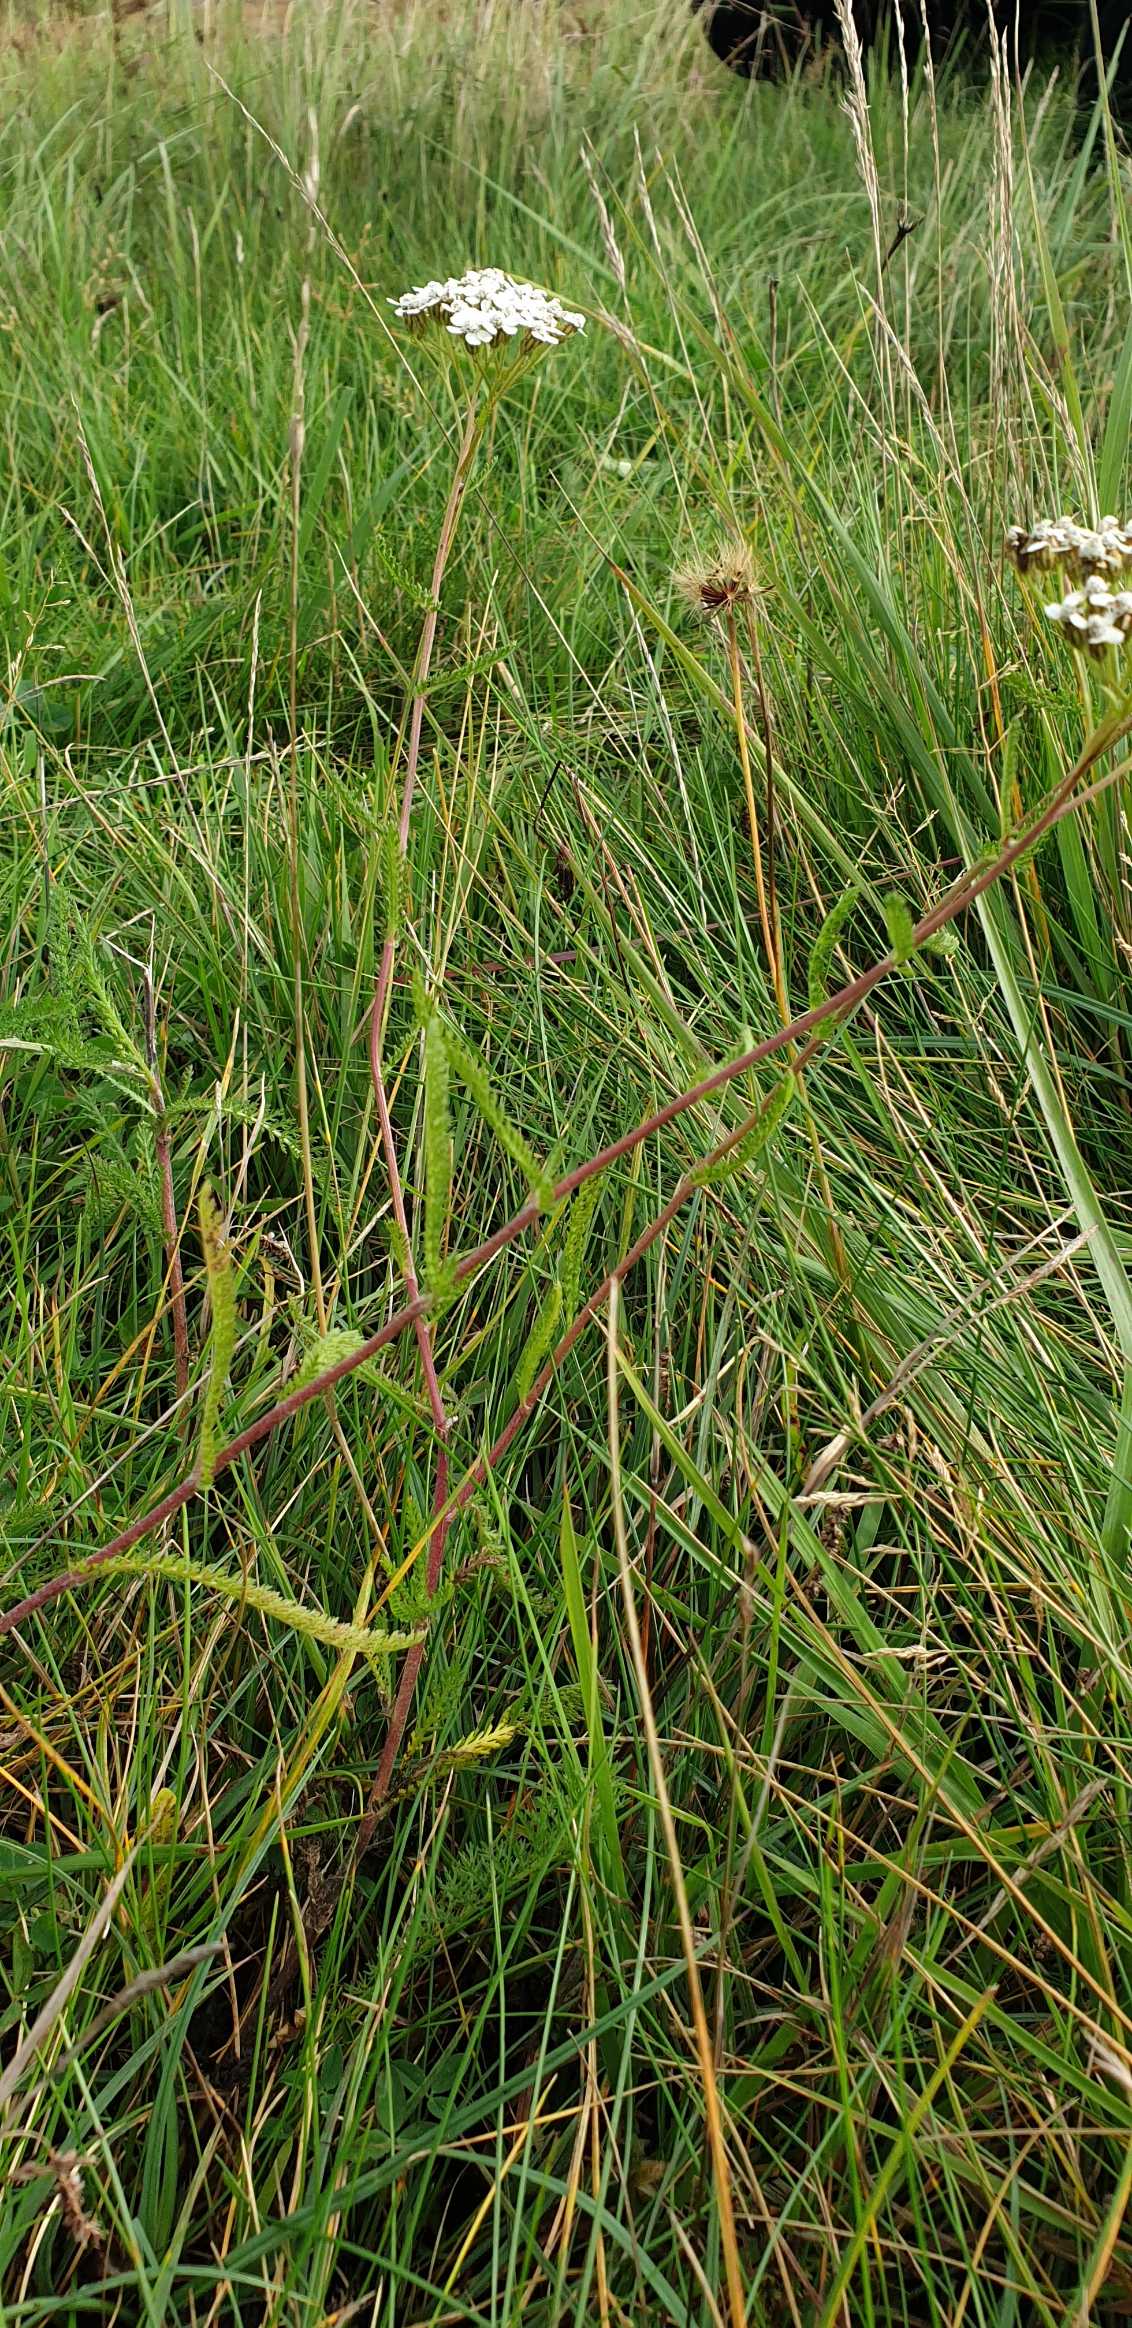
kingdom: Plantae
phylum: Tracheophyta
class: Magnoliopsida
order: Asterales
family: Asteraceae
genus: Achillea
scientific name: Achillea millefolium
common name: Almindelig røllike
